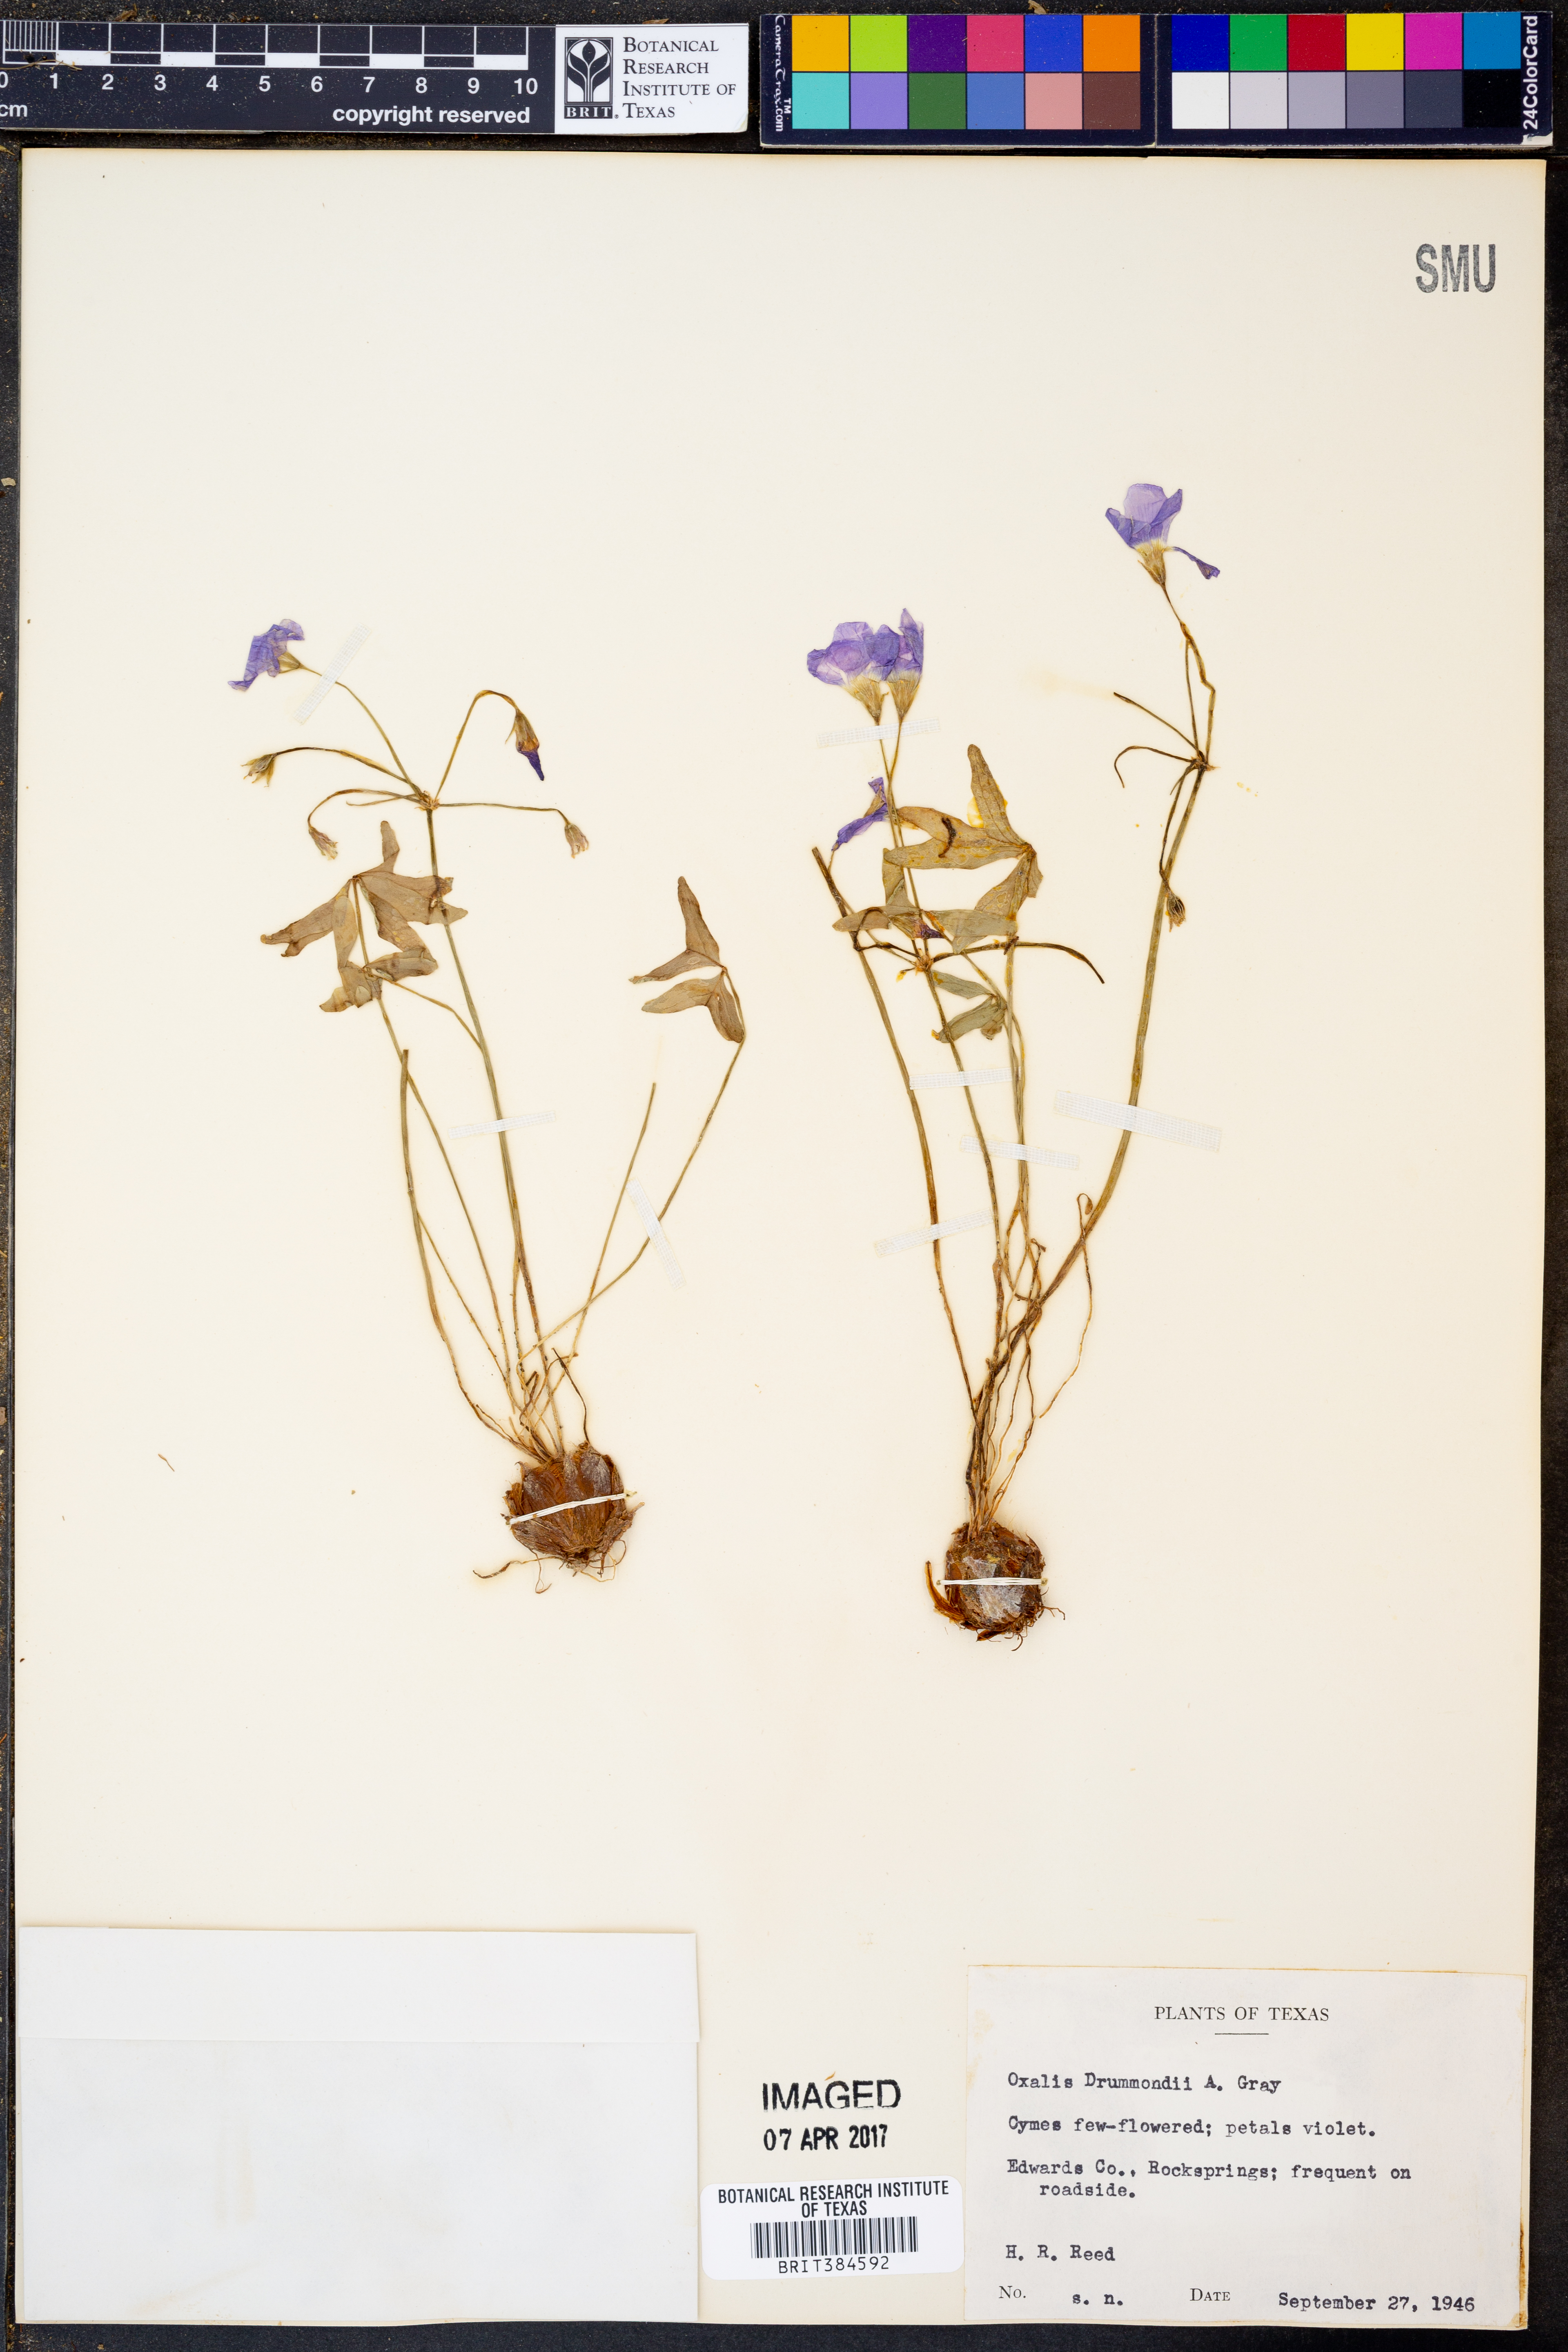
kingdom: Plantae
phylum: Tracheophyta
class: Magnoliopsida
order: Oxalidales
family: Oxalidaceae
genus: Oxalis
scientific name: Oxalis drummondii
